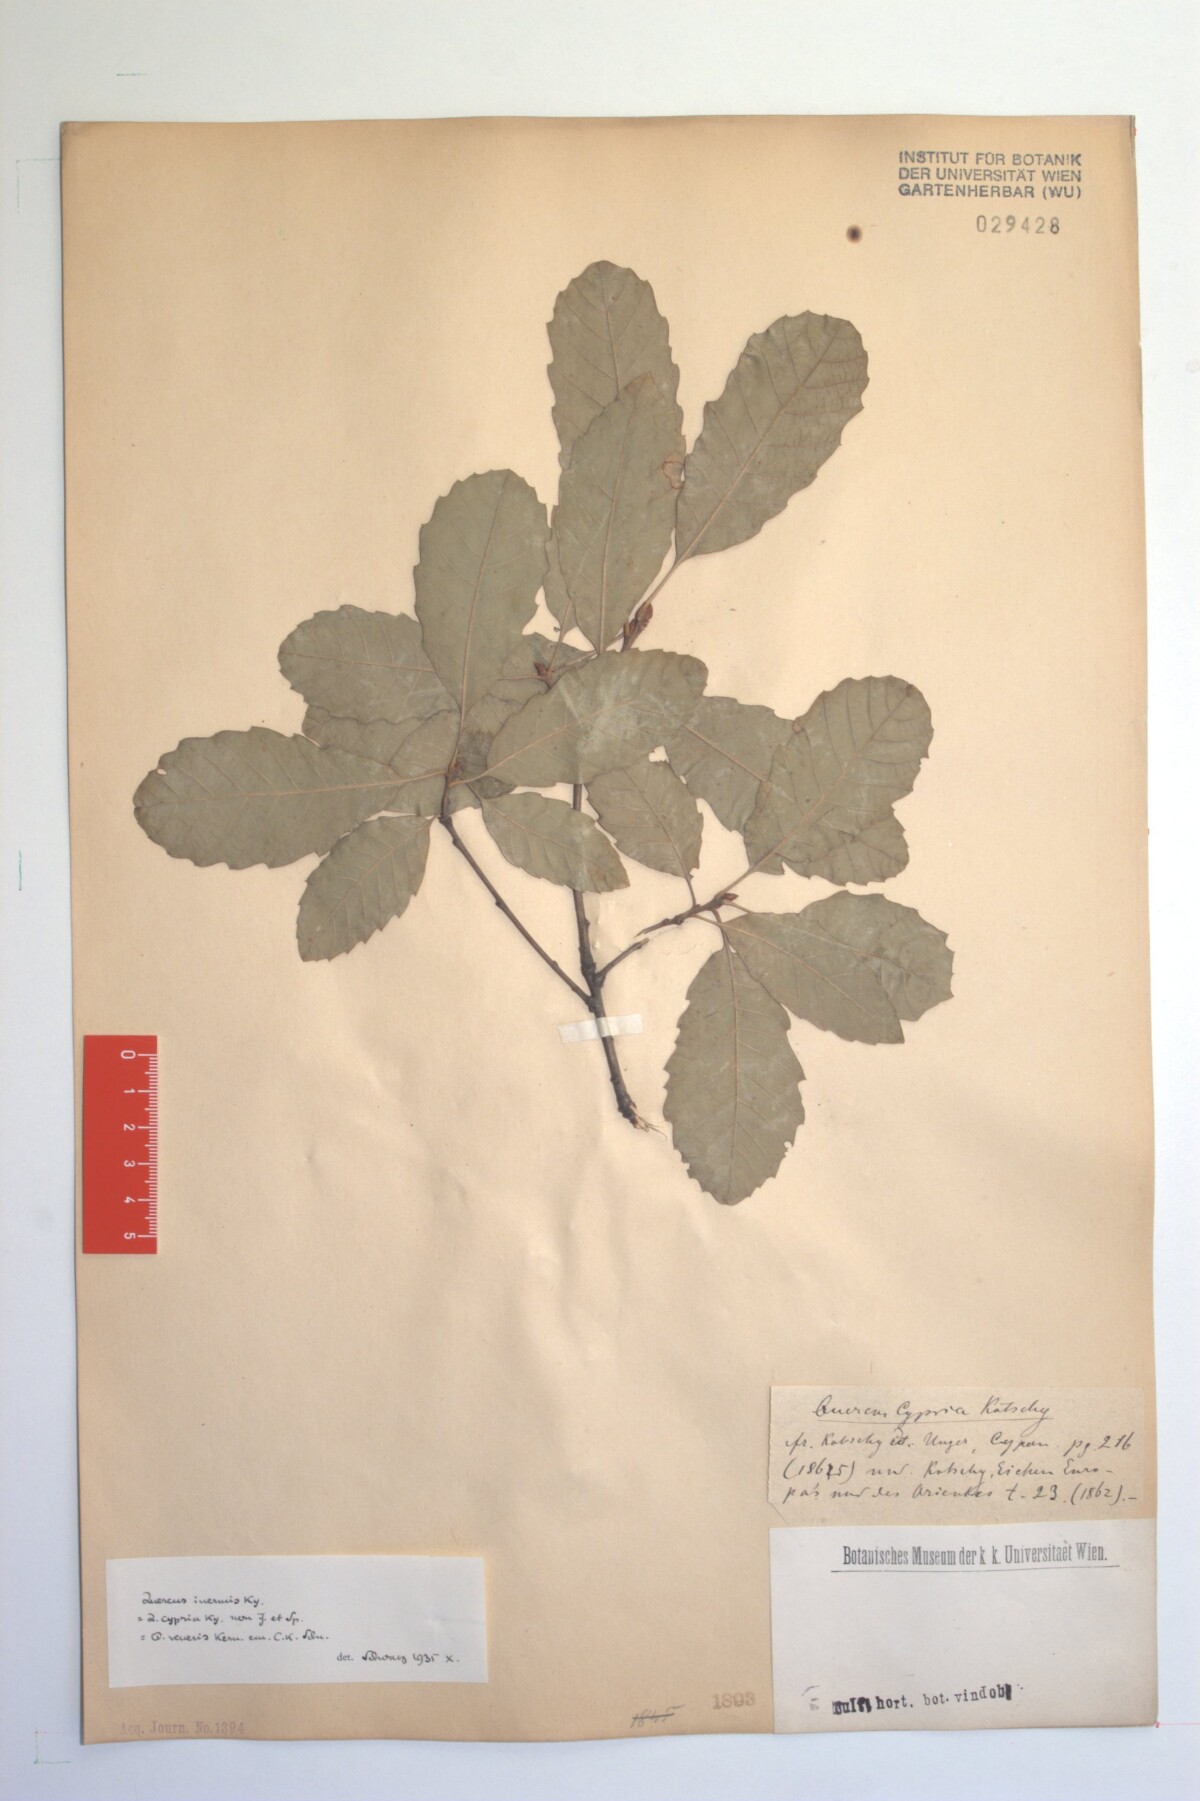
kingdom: Plantae
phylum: Tracheophyta
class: Magnoliopsida
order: Fagales
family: Fagaceae
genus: Quercus
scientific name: Quercus infectoria
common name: Aleppo oak
